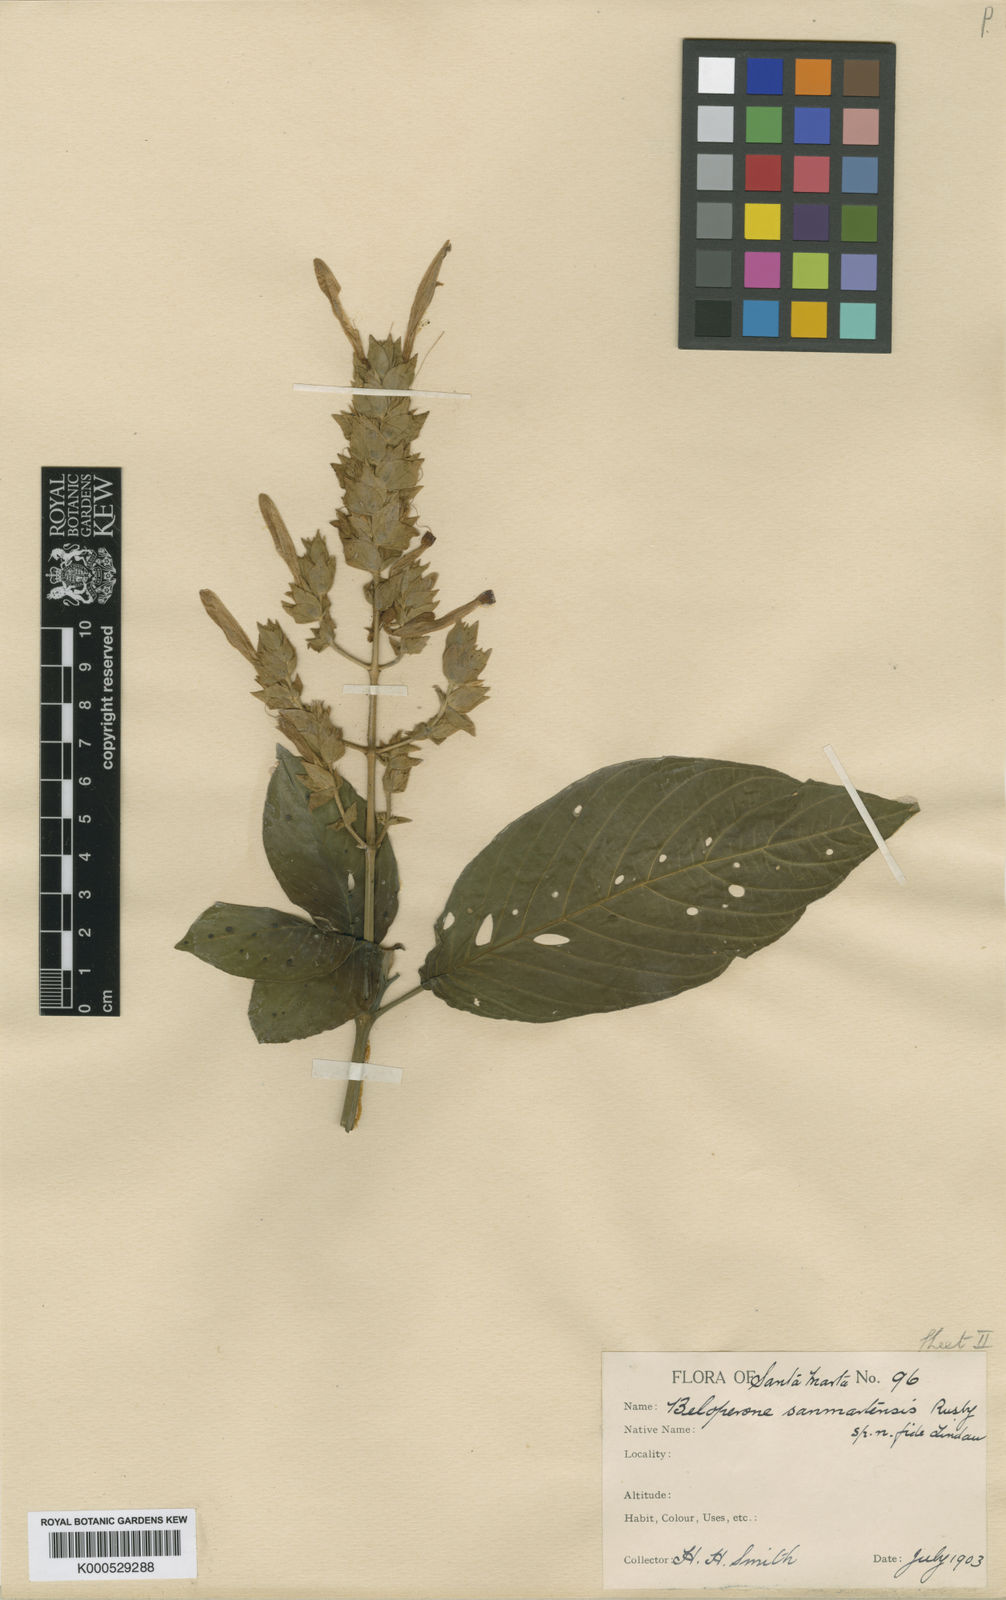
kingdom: Plantae
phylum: Tracheophyta
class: Magnoliopsida
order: Lamiales
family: Acanthaceae
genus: Justicia
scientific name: Justicia
